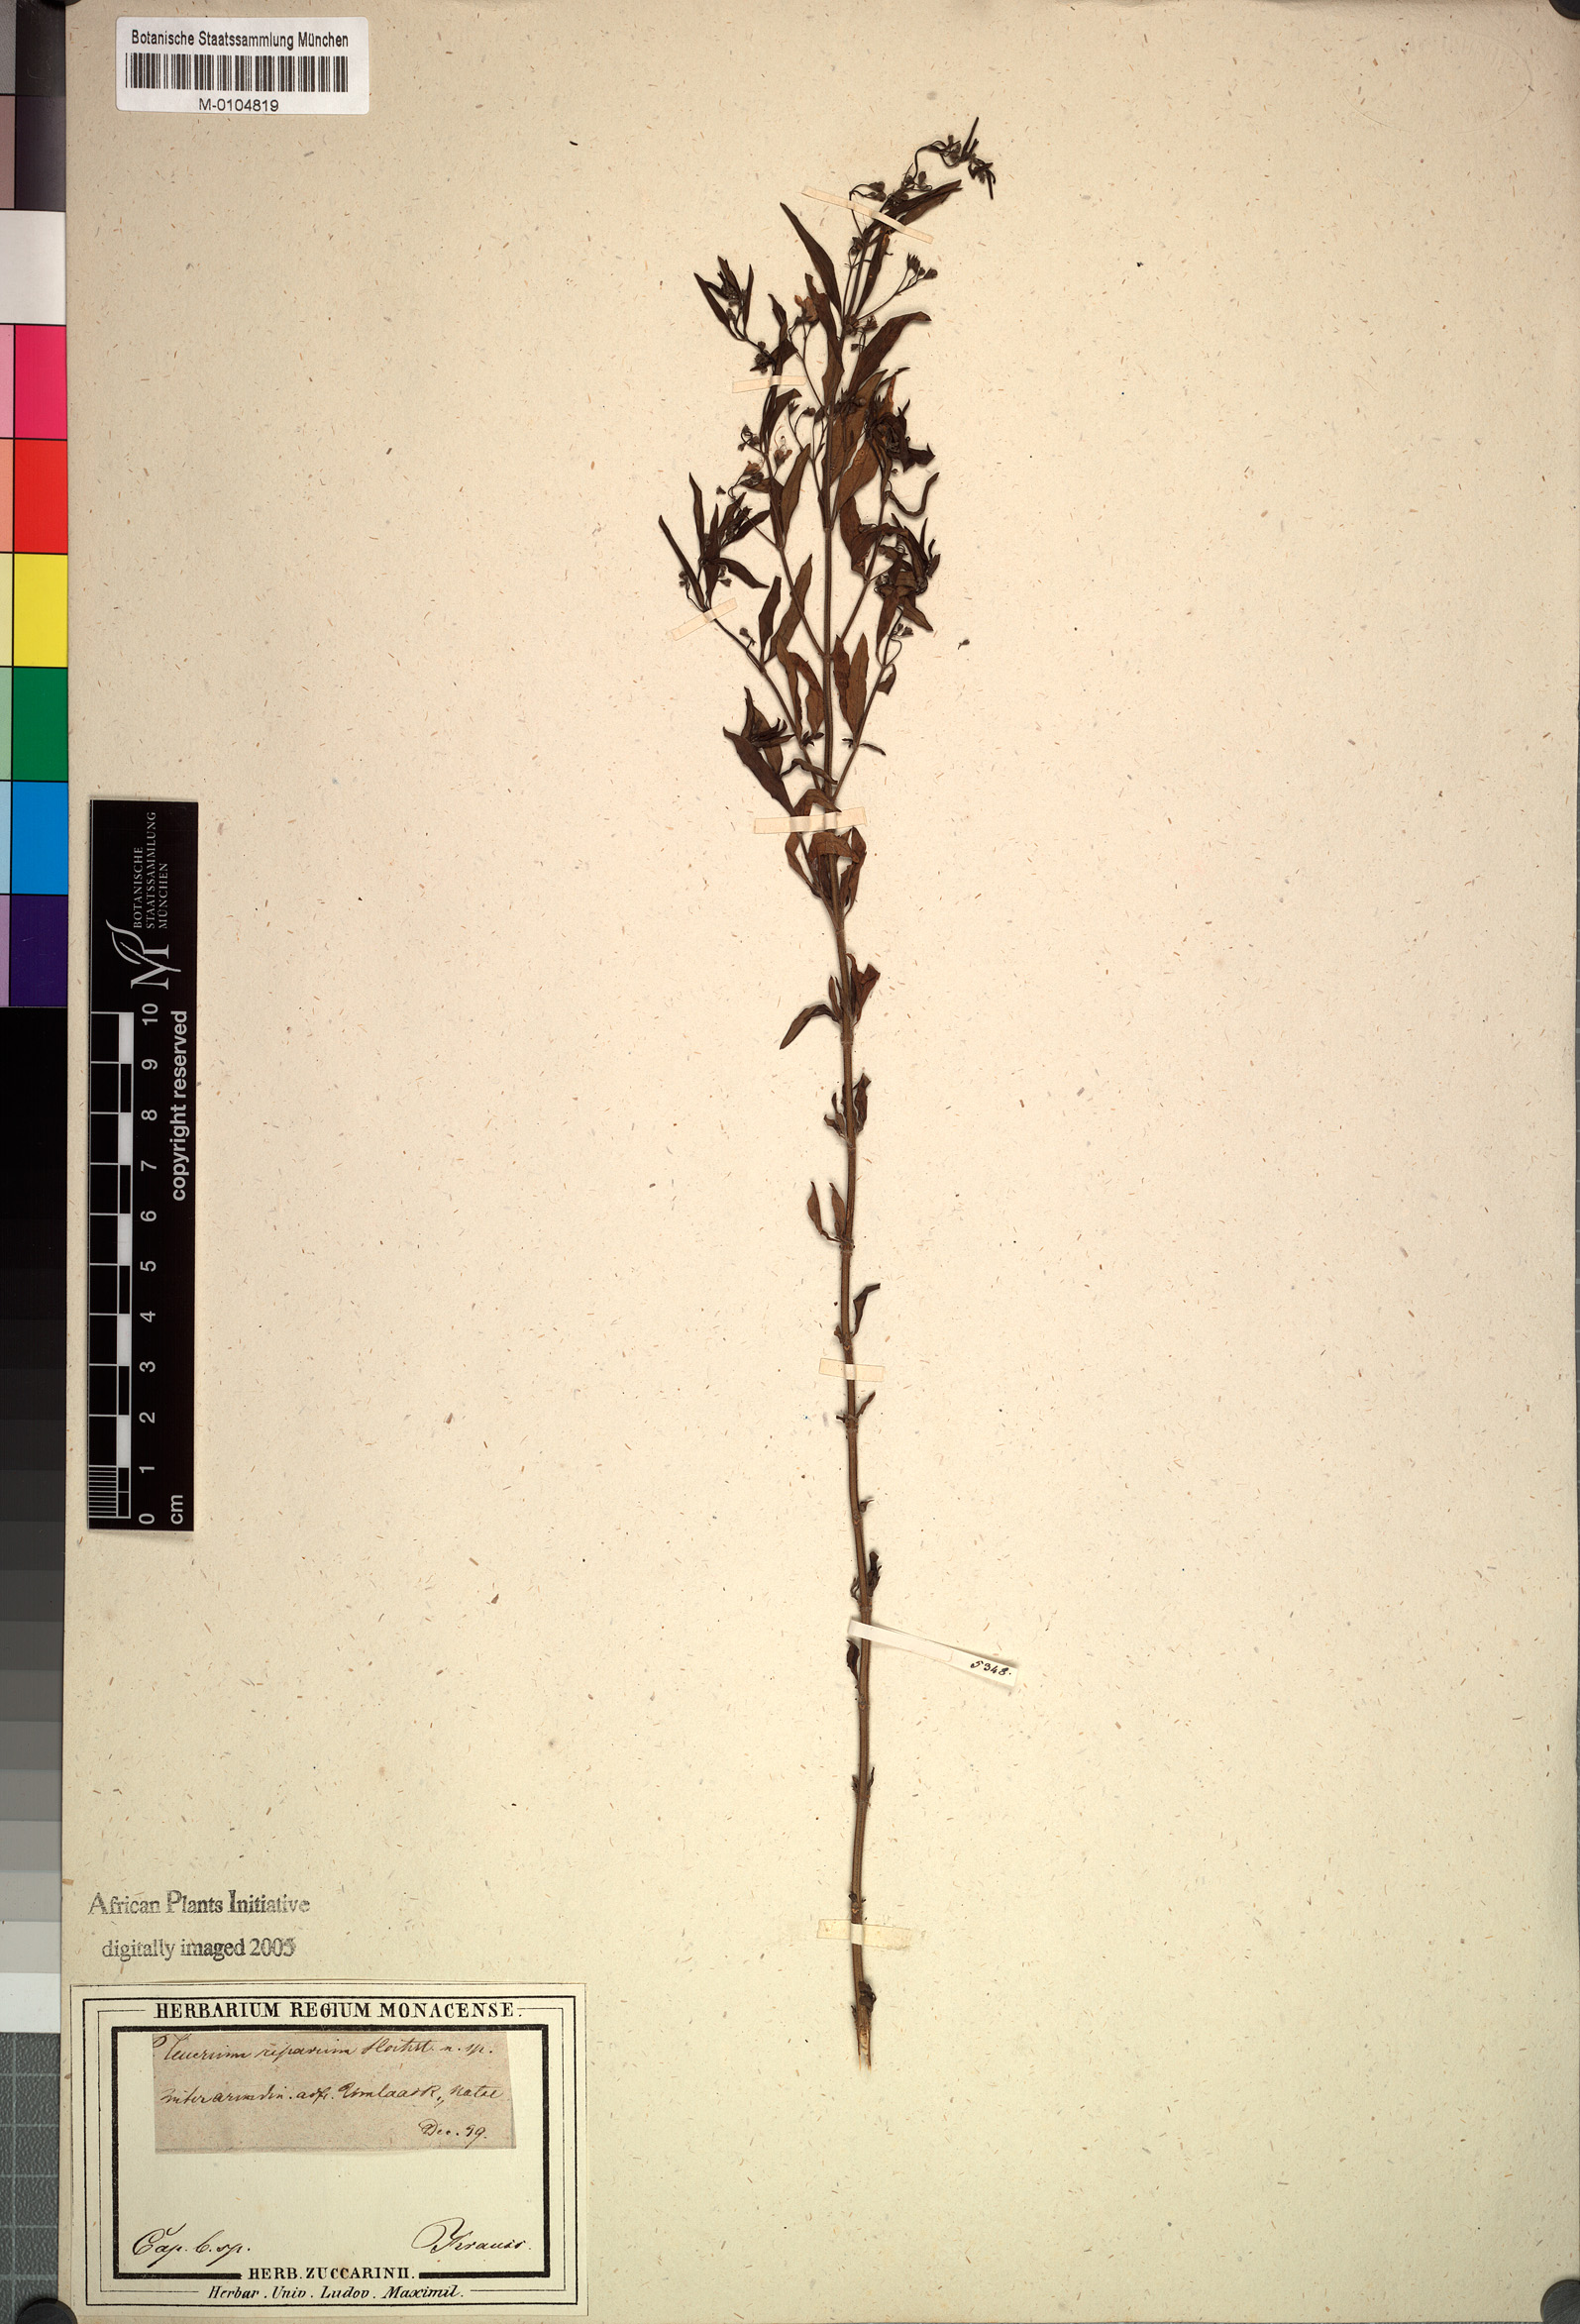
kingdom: Plantae
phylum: Tracheophyta
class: Magnoliopsida
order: Lamiales
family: Lamiaceae
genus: Teucrium
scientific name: Teucrium kraussii
